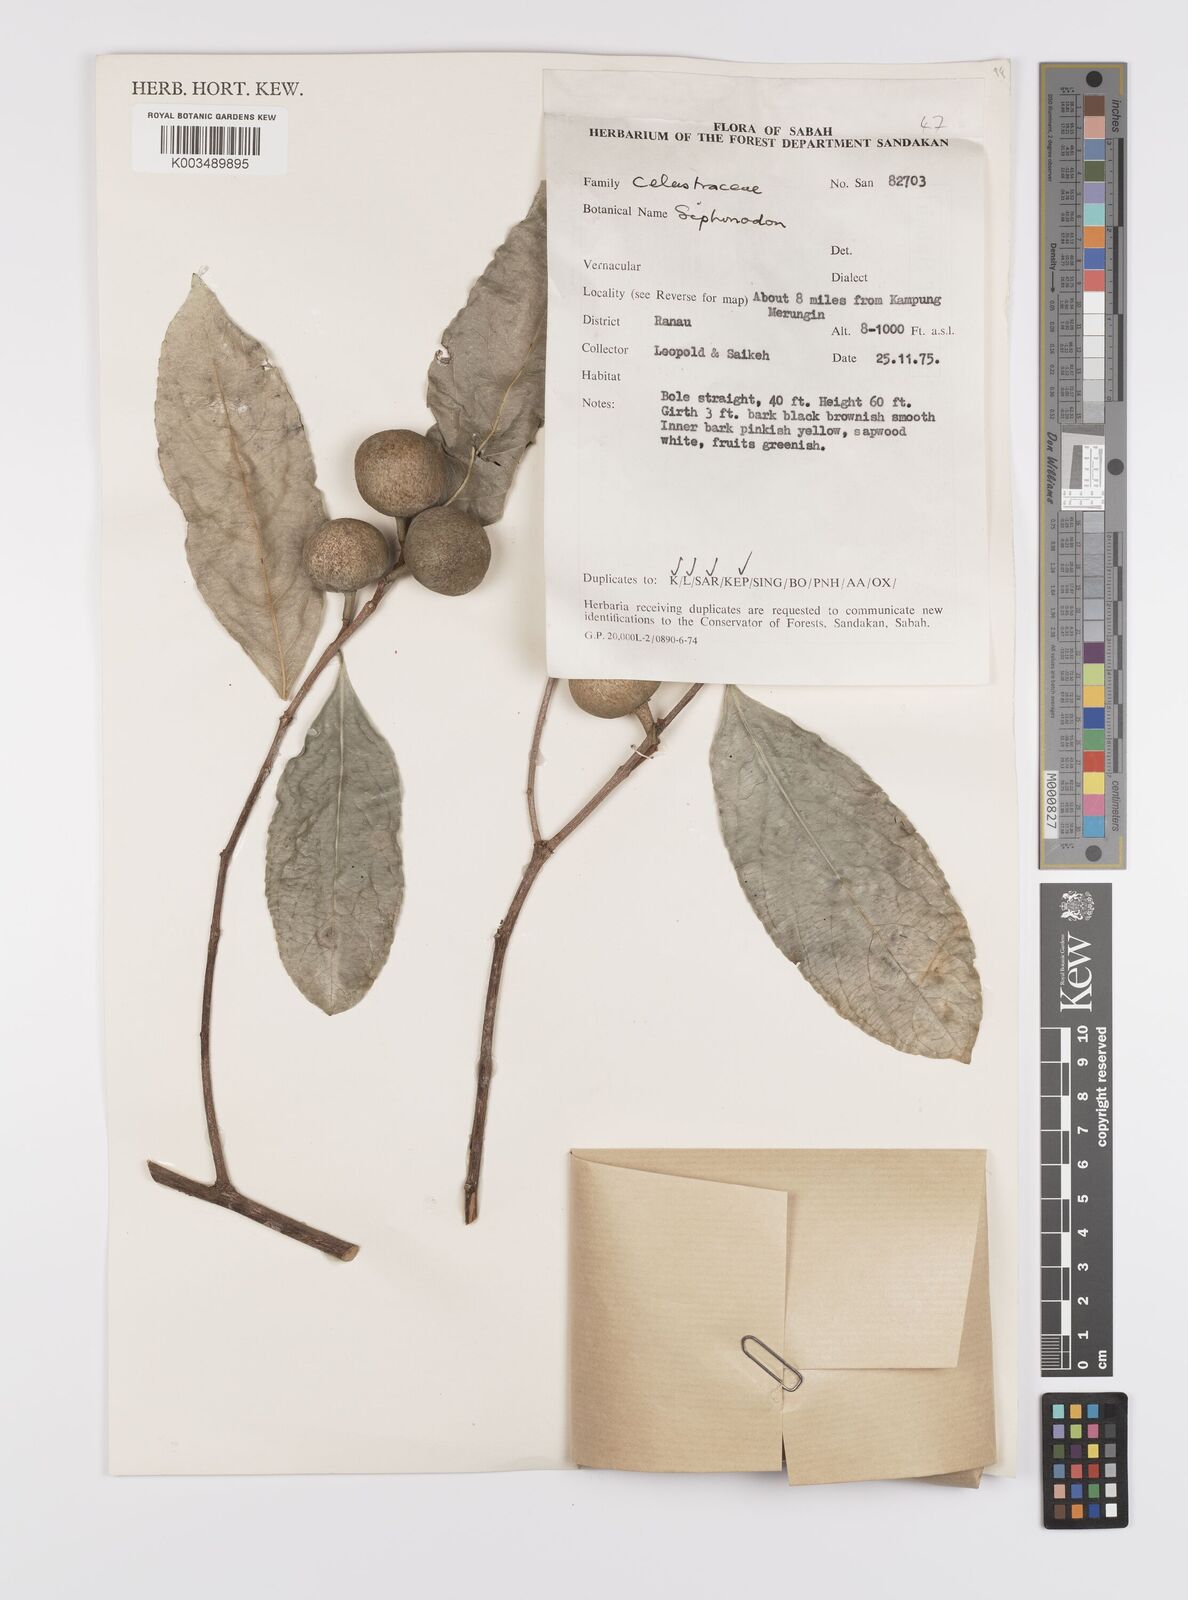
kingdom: Plantae
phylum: Tracheophyta
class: Magnoliopsida
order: Celastrales
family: Celastraceae
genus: Siphonodon
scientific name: Siphonodon celastrineus
